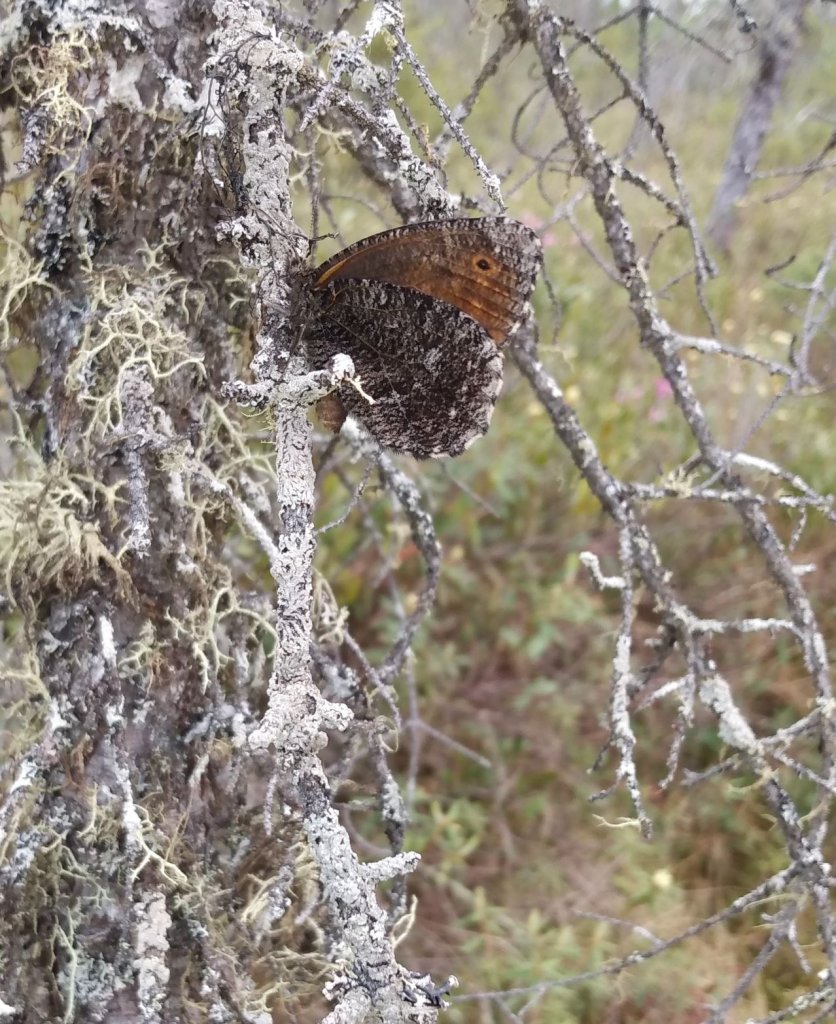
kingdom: Animalia
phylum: Arthropoda
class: Insecta
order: Lepidoptera
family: Nymphalidae
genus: Oeneis
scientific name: Oeneis jutta
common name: Jutta Arctic
